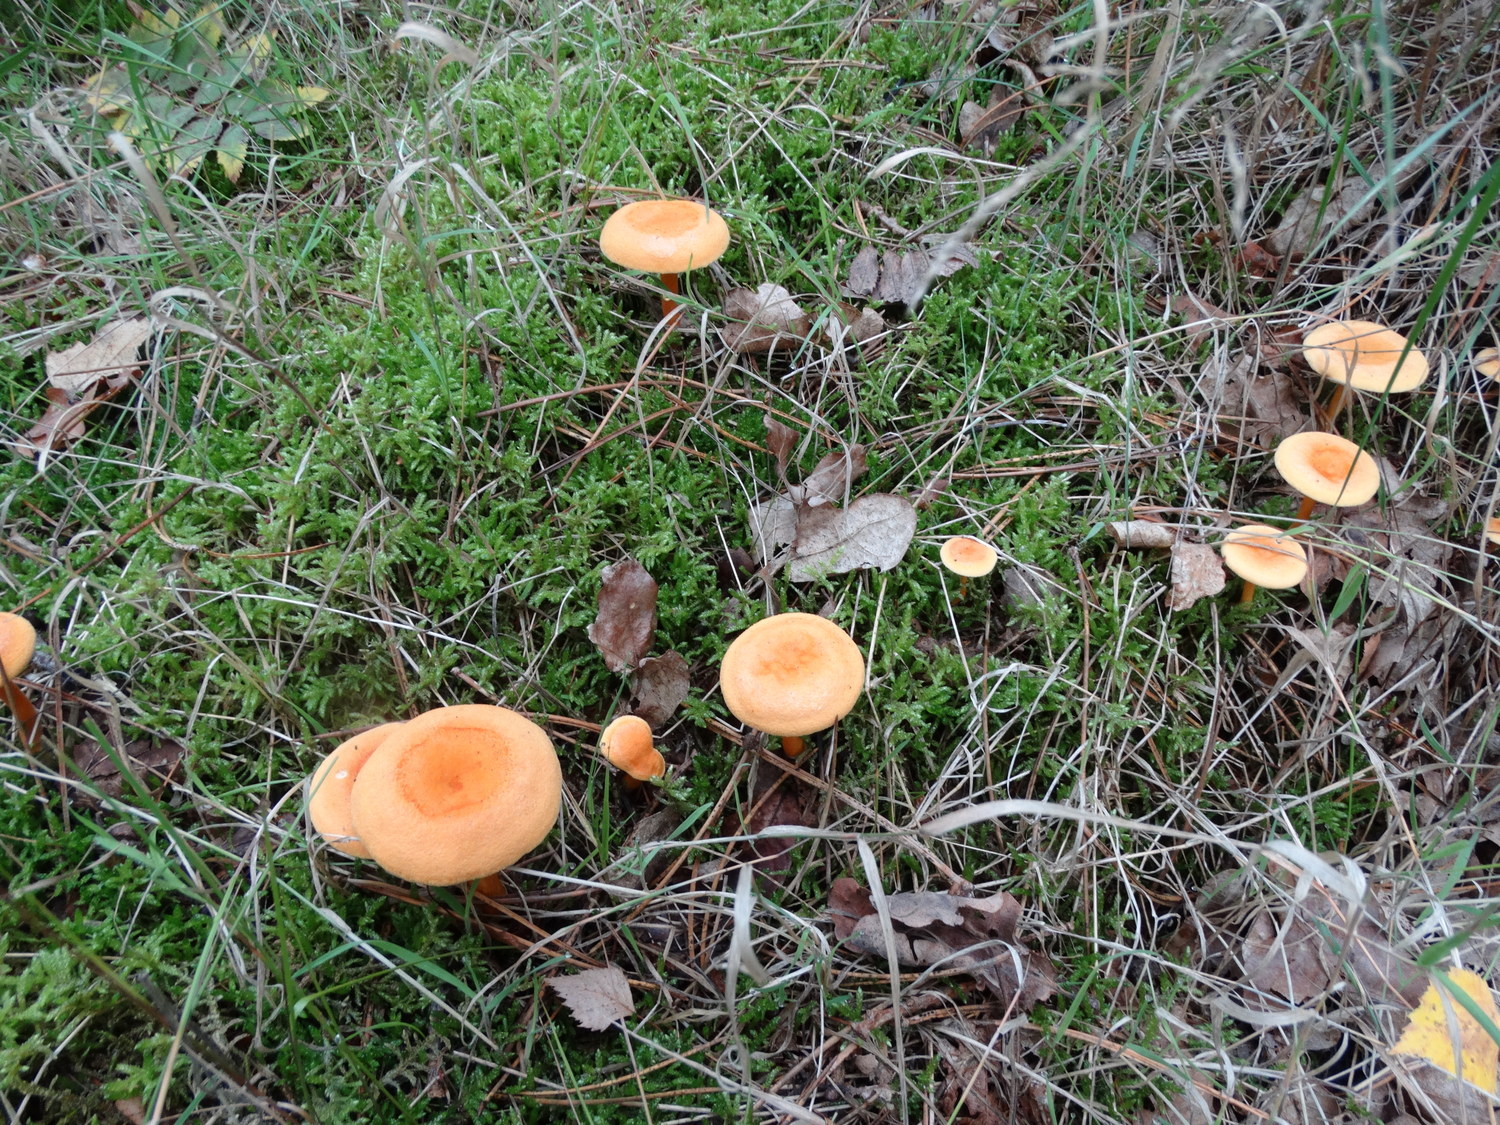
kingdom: Fungi
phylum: Basidiomycota
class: Agaricomycetes
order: Boletales
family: Hygrophoropsidaceae
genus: Hygrophoropsis
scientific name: Hygrophoropsis aurantiaca
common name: almindelig orangekantarel
